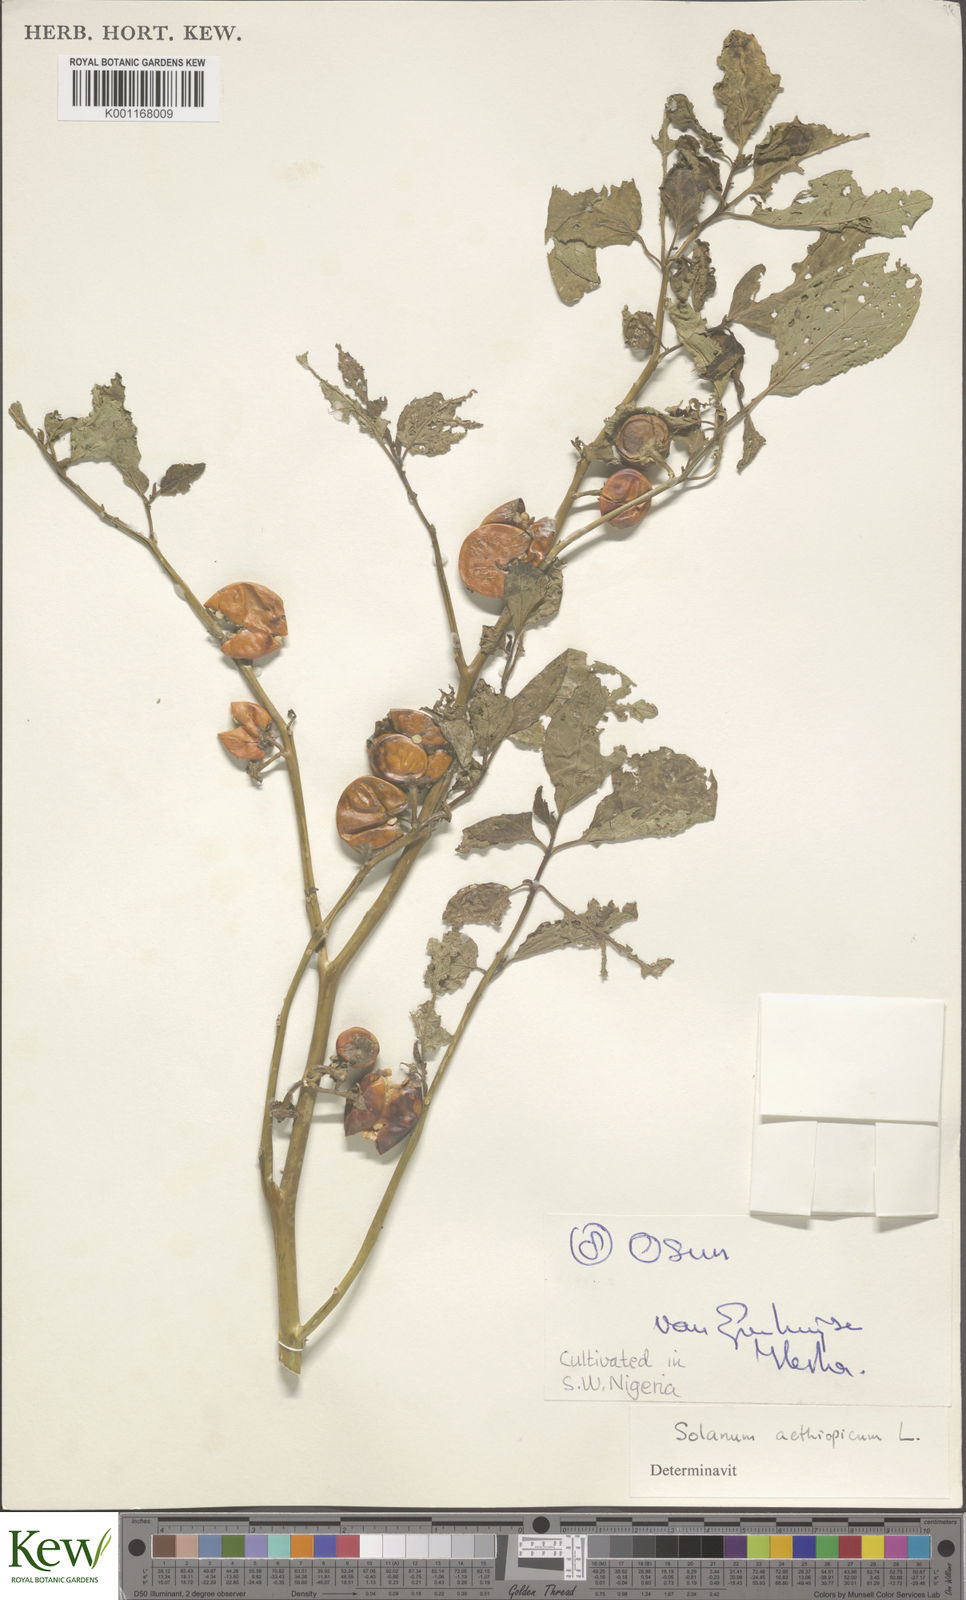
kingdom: Plantae
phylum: Tracheophyta
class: Magnoliopsida
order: Solanales
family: Solanaceae
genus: Solanum
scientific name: Solanum aethiopicum
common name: Gilo
